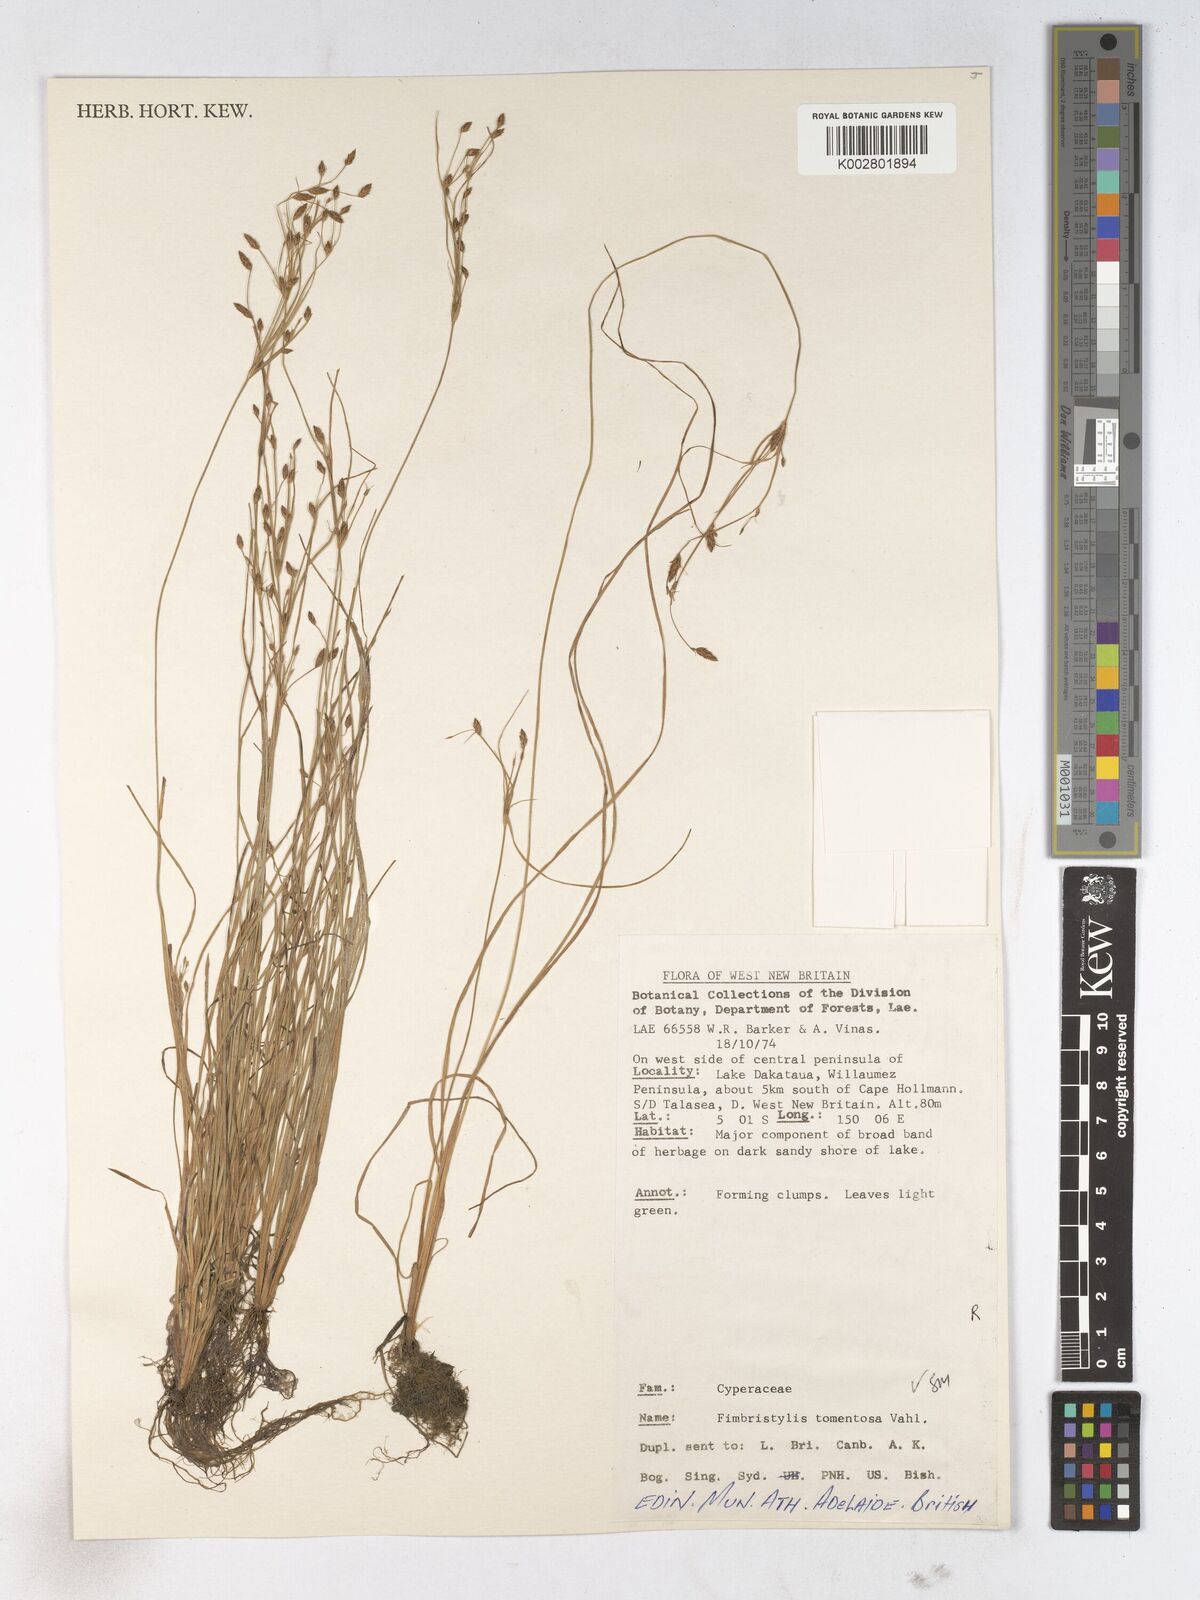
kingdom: Plantae
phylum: Tracheophyta
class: Liliopsida
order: Poales
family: Cyperaceae
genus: Fimbristylis
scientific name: Fimbristylis dichotoma
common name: Forked fimbry
